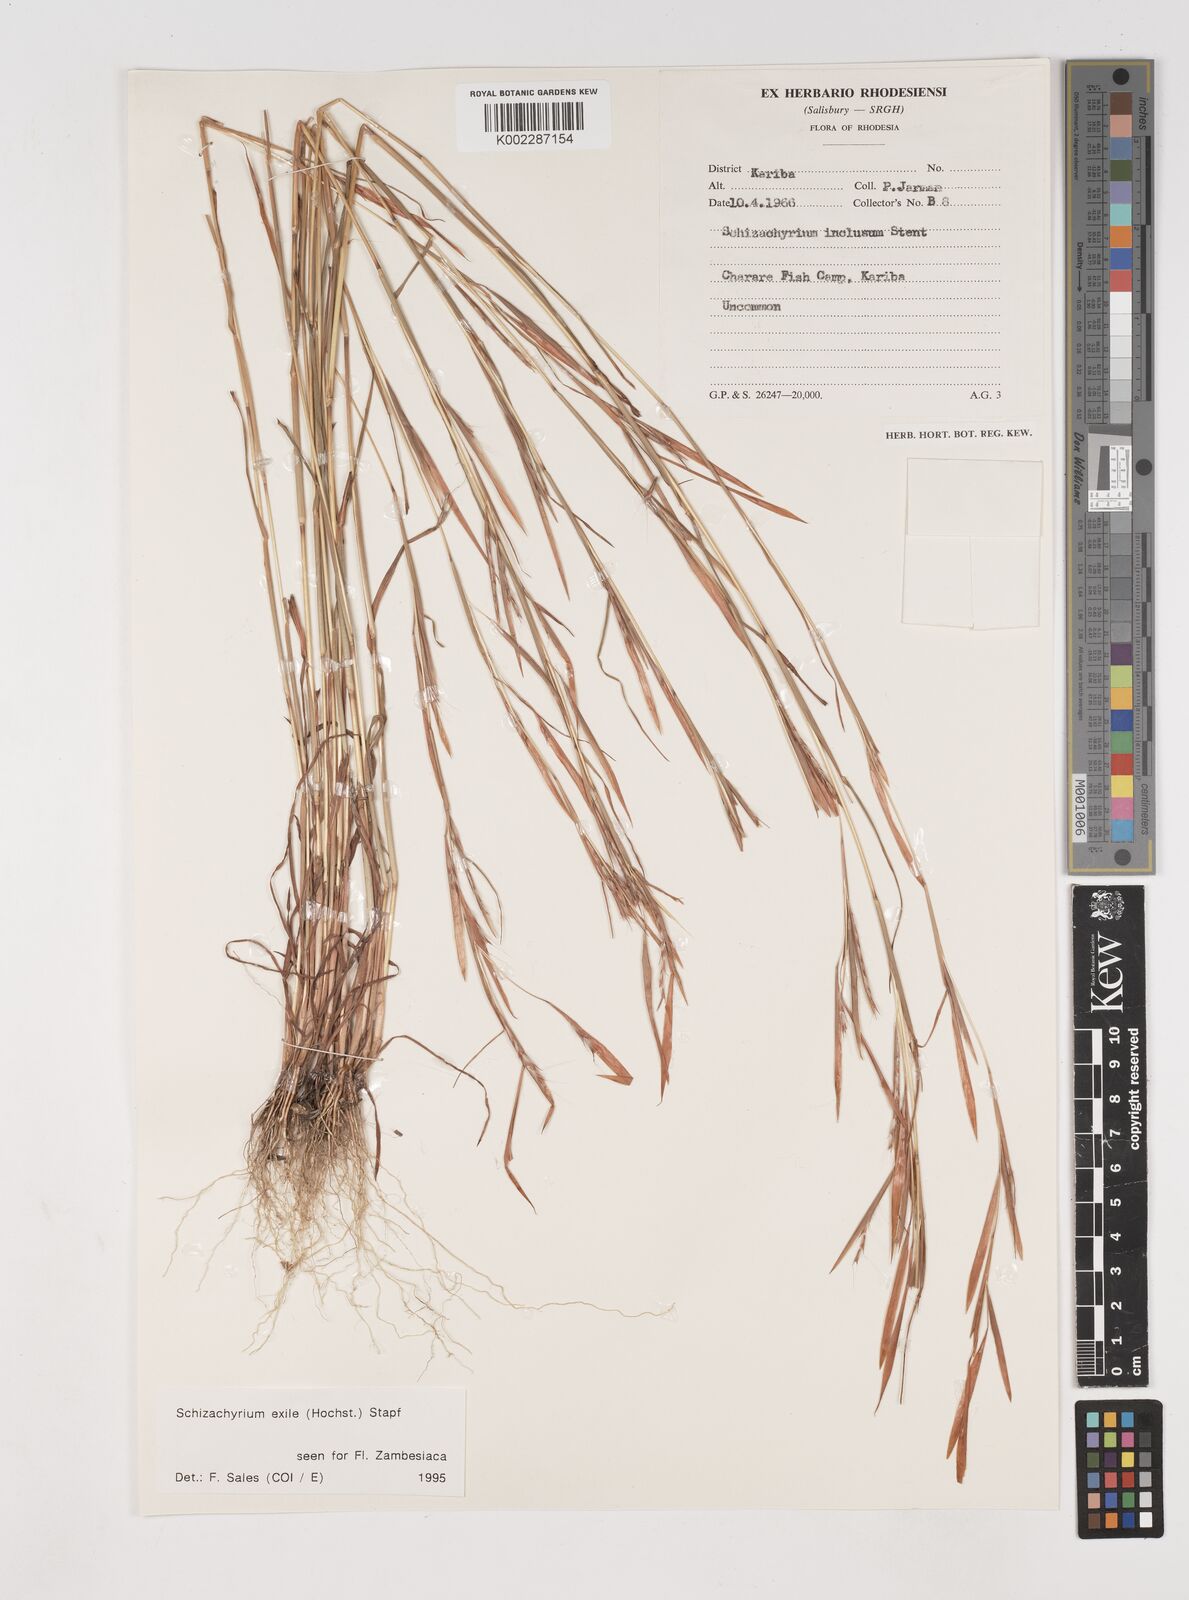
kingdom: Plantae
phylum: Tracheophyta
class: Liliopsida
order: Poales
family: Poaceae
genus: Schizachyrium
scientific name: Schizachyrium exile
